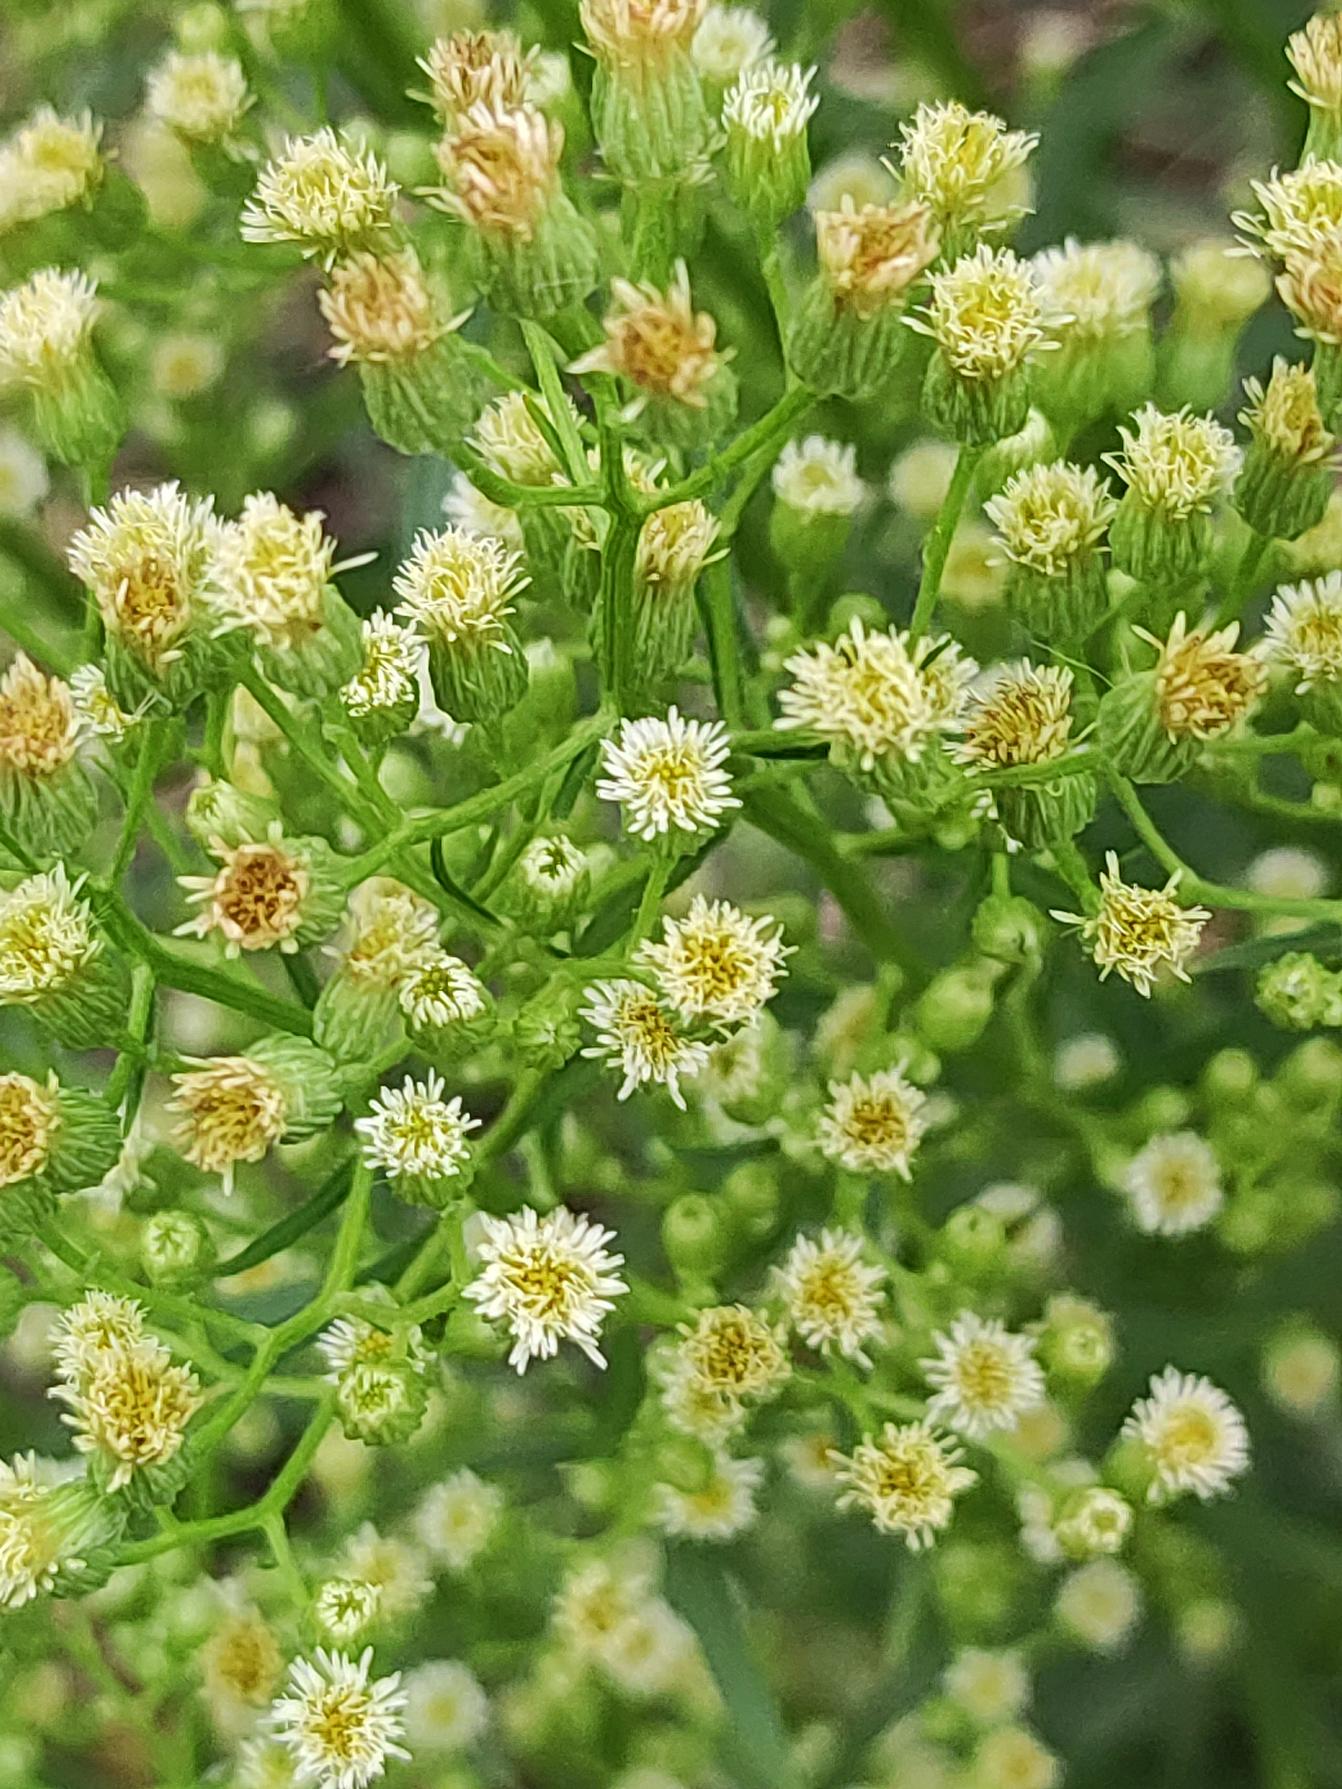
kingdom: Plantae
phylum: Tracheophyta
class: Magnoliopsida
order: Asterales
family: Asteraceae
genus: Erigeron
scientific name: Erigeron canadensis
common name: Kanadisk bakkestjerne
